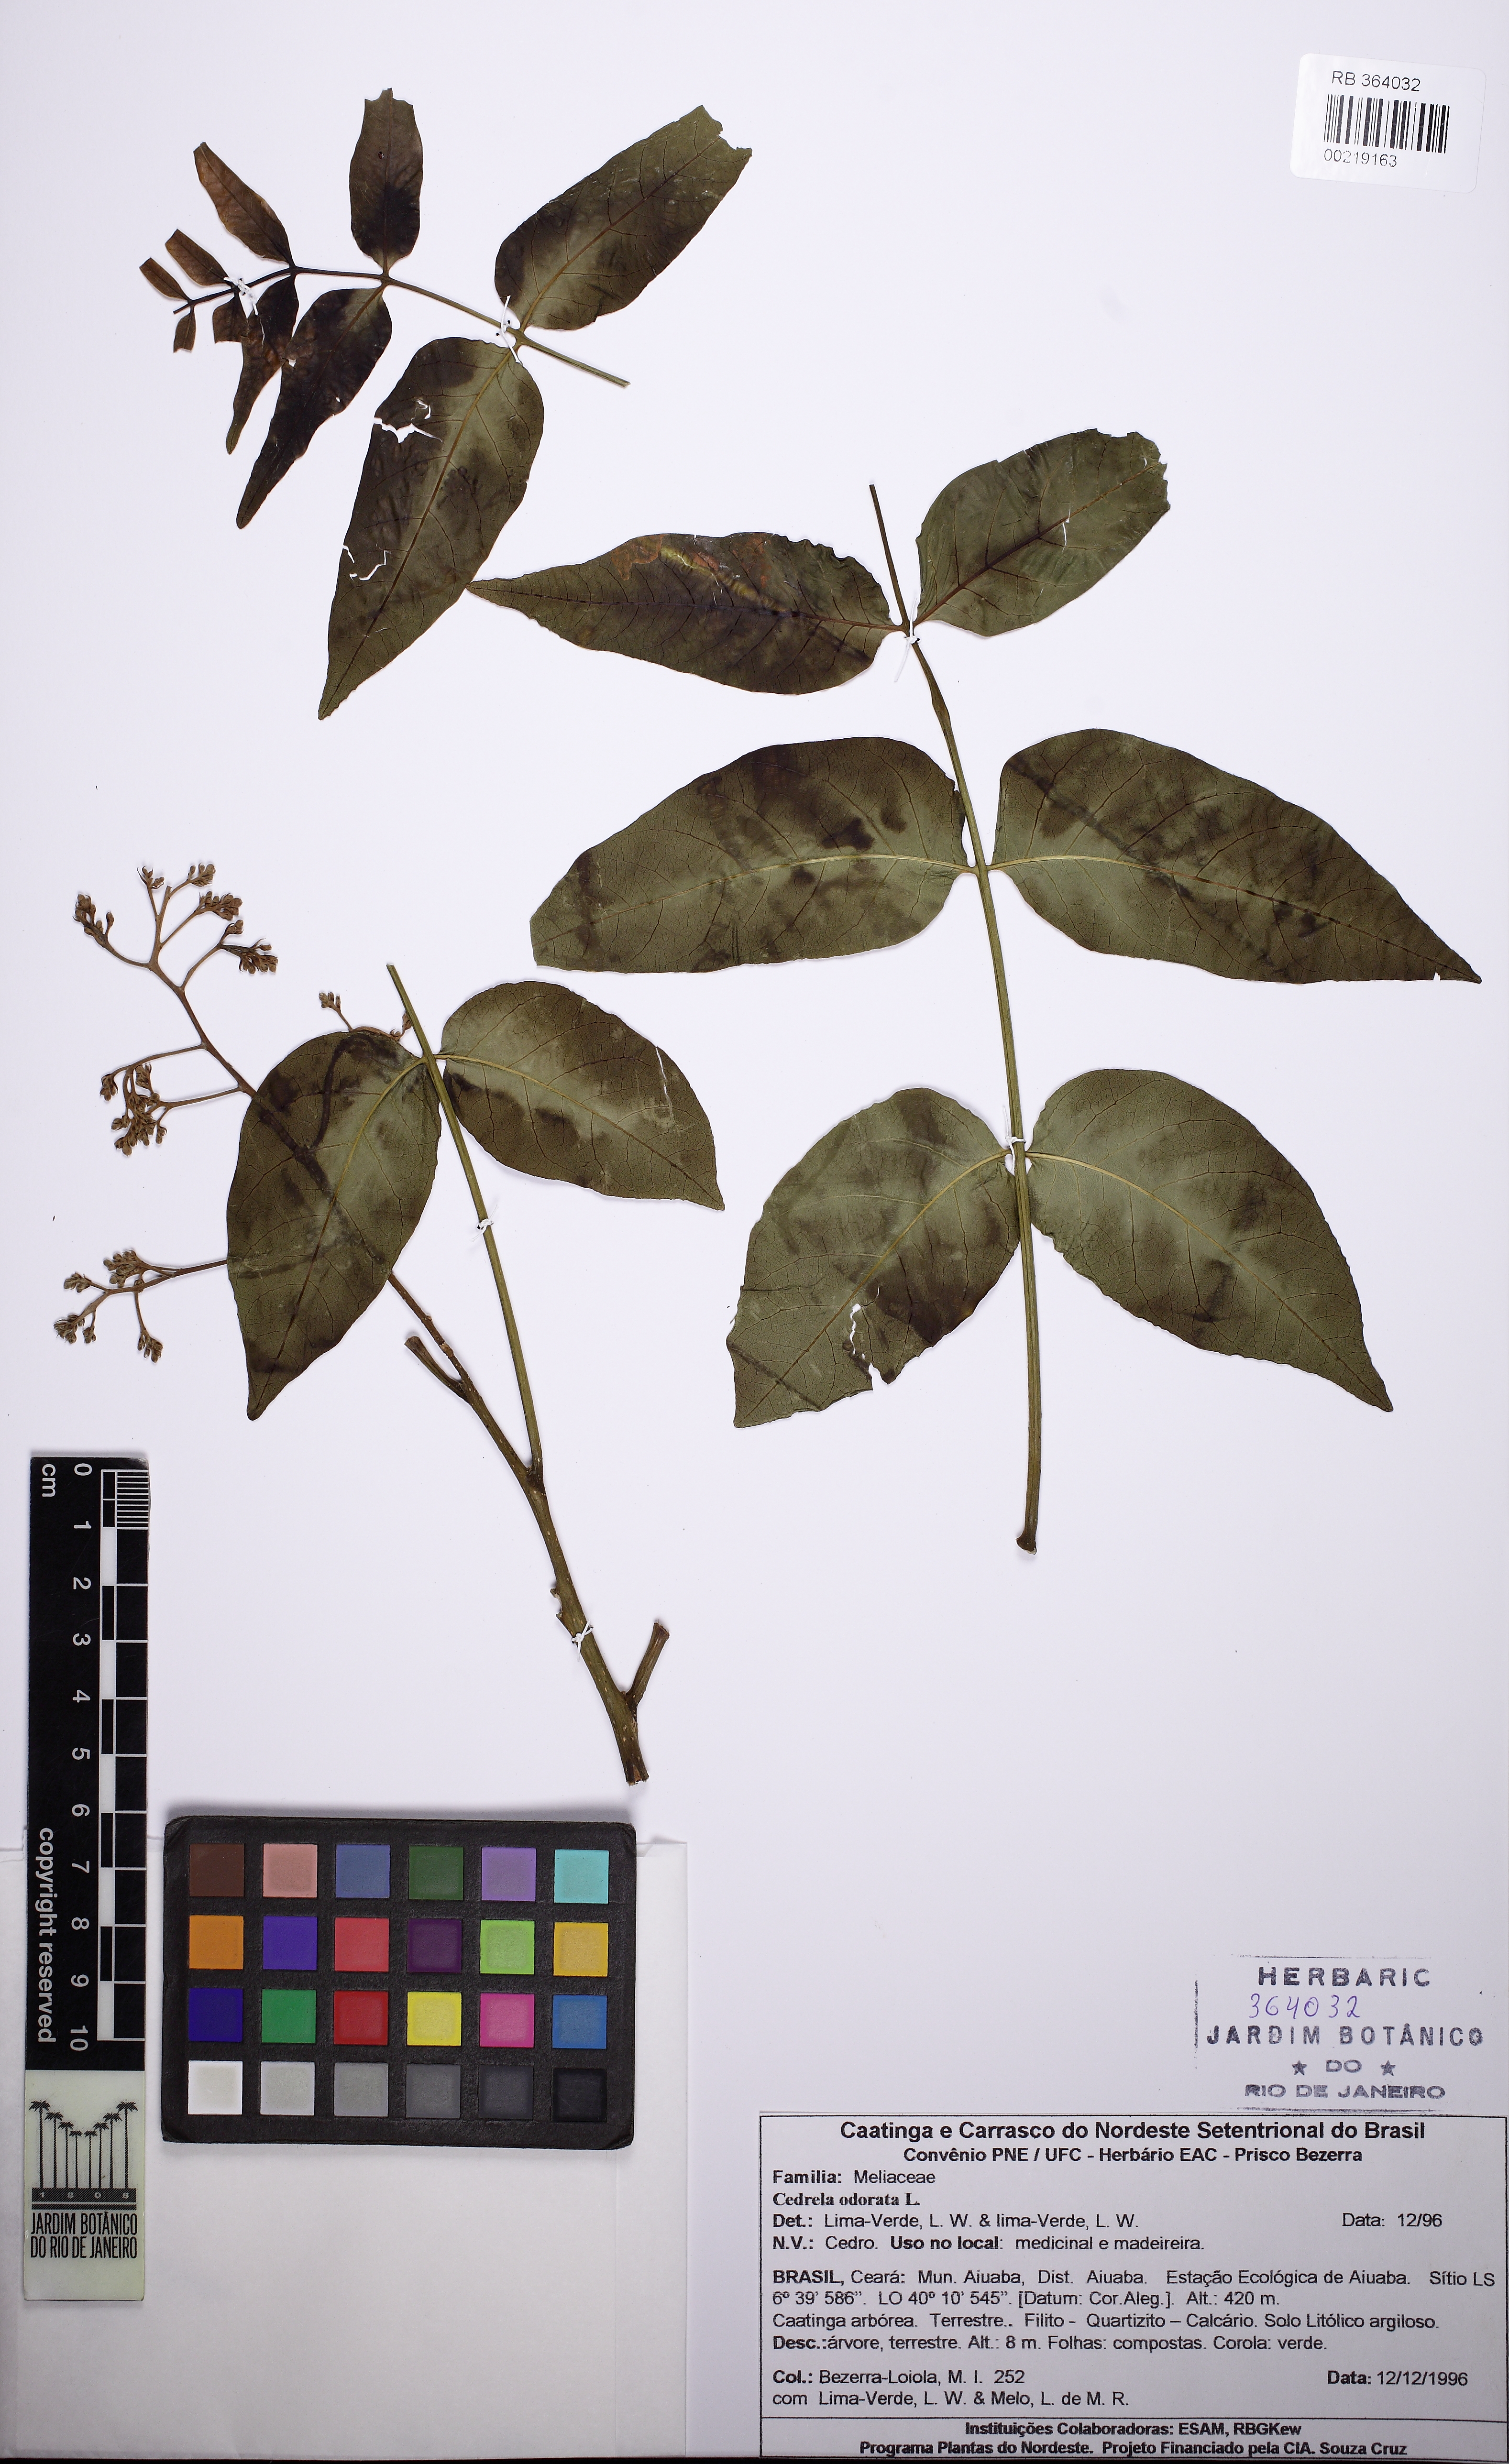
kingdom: Plantae
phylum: Tracheophyta
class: Magnoliopsida
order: Sapindales
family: Meliaceae
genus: Cedrela
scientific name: Cedrela odorata
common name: Red cedar
